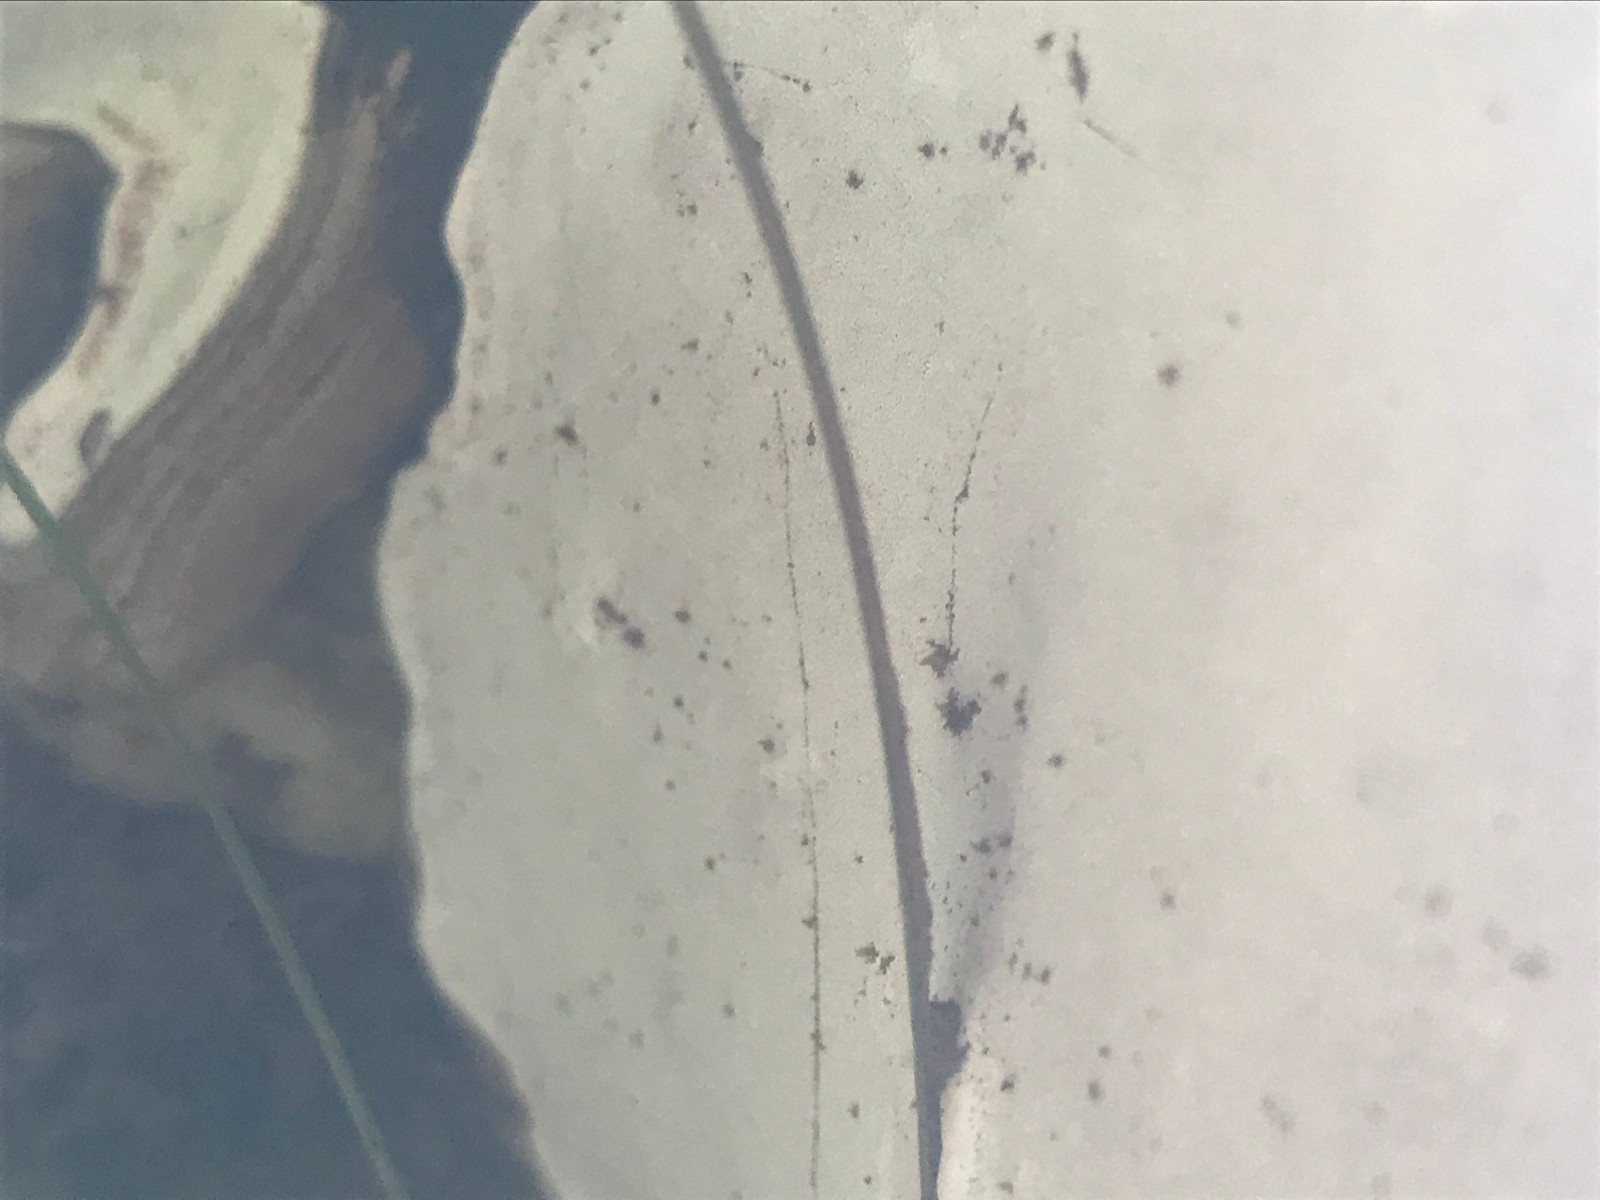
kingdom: Fungi
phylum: Basidiomycota
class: Agaricomycetes
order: Polyporales
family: Polyporaceae
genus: Ganoderma
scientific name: Ganoderma applanatum
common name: flad lakporesvamp
